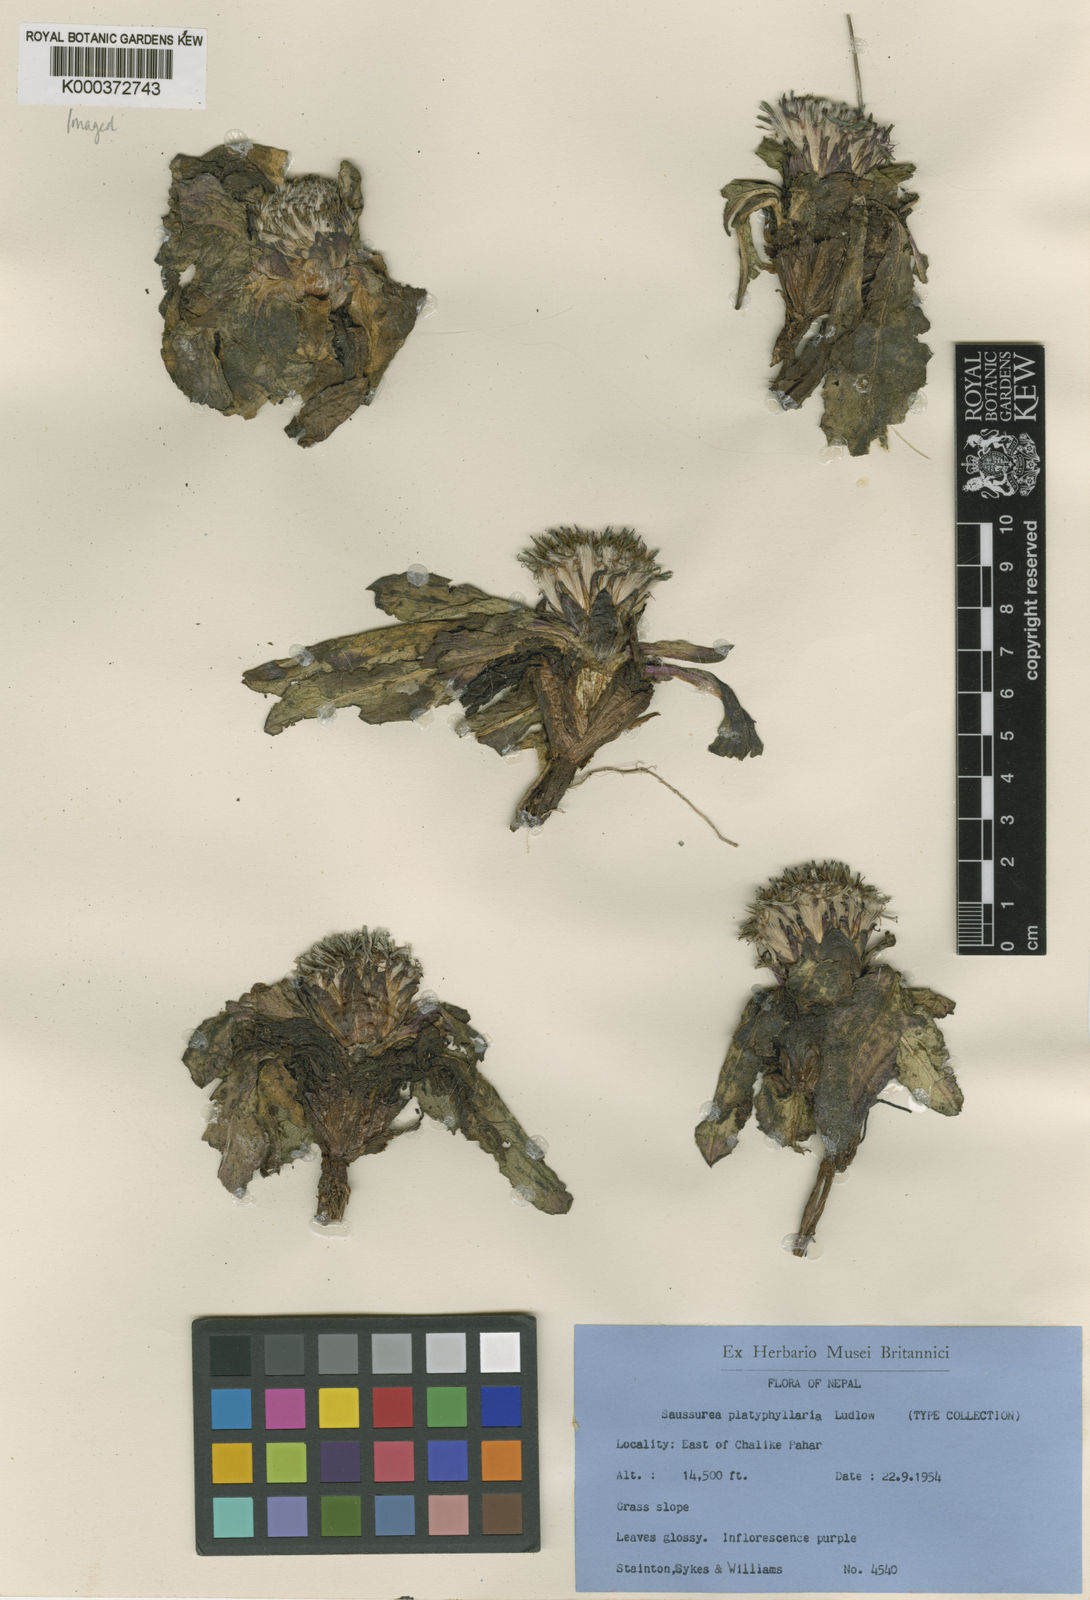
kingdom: Plantae
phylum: Tracheophyta
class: Magnoliopsida
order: Asterales
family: Asteraceae
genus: Saussurea
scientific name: Saussurea platyphyllaria
